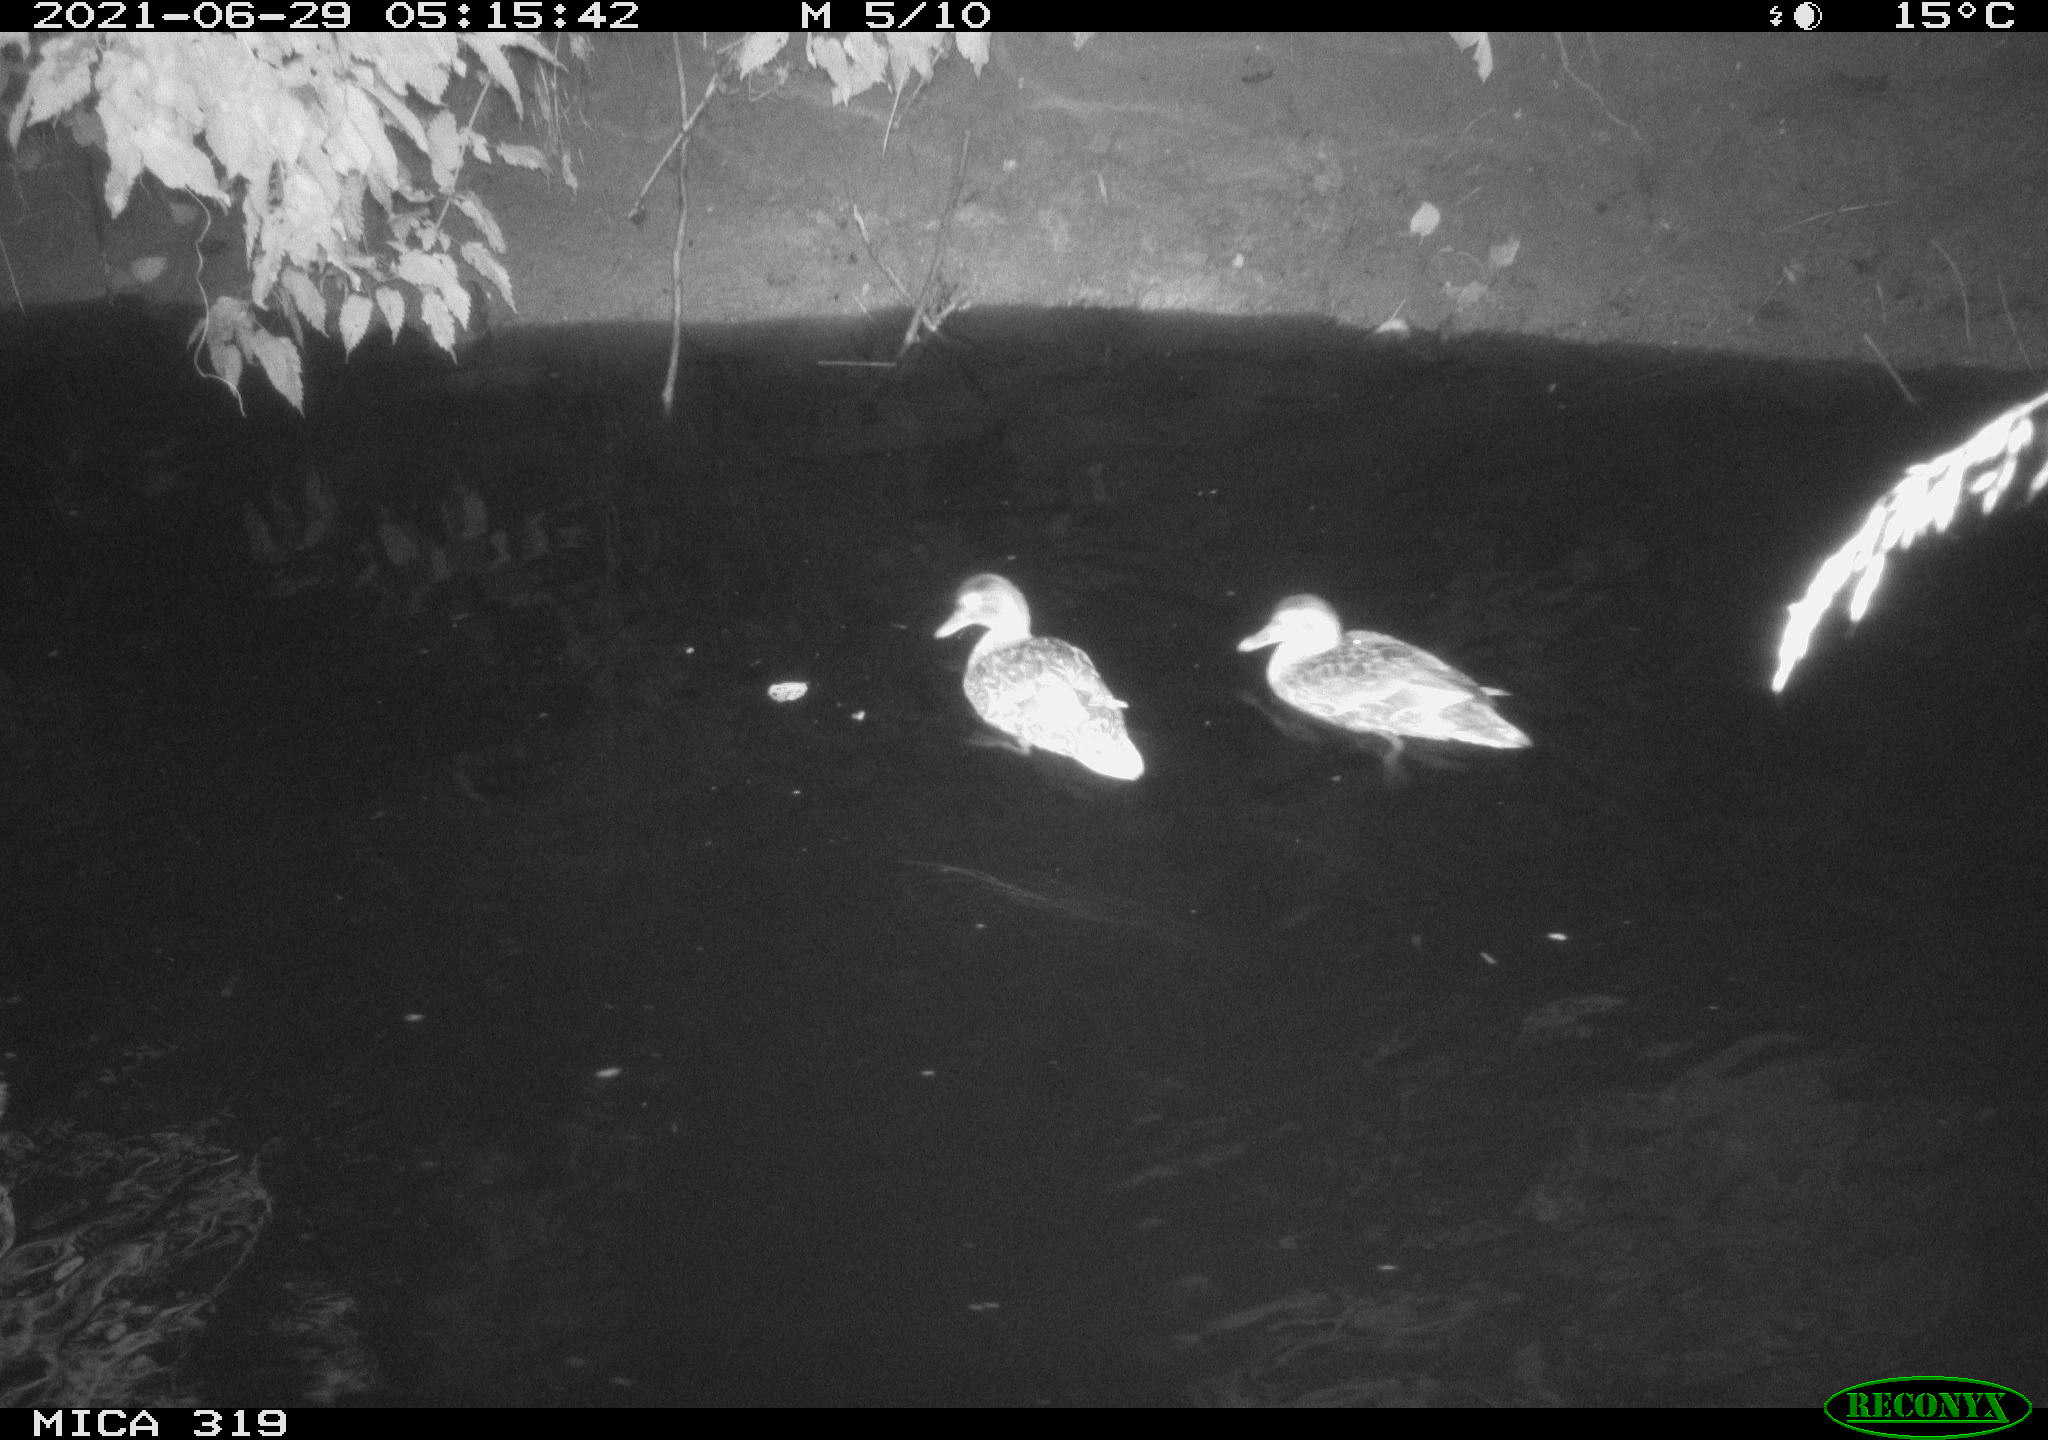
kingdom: Animalia
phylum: Chordata
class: Aves
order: Anseriformes
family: Anatidae
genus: Anas
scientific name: Anas platyrhynchos
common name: Mallard
